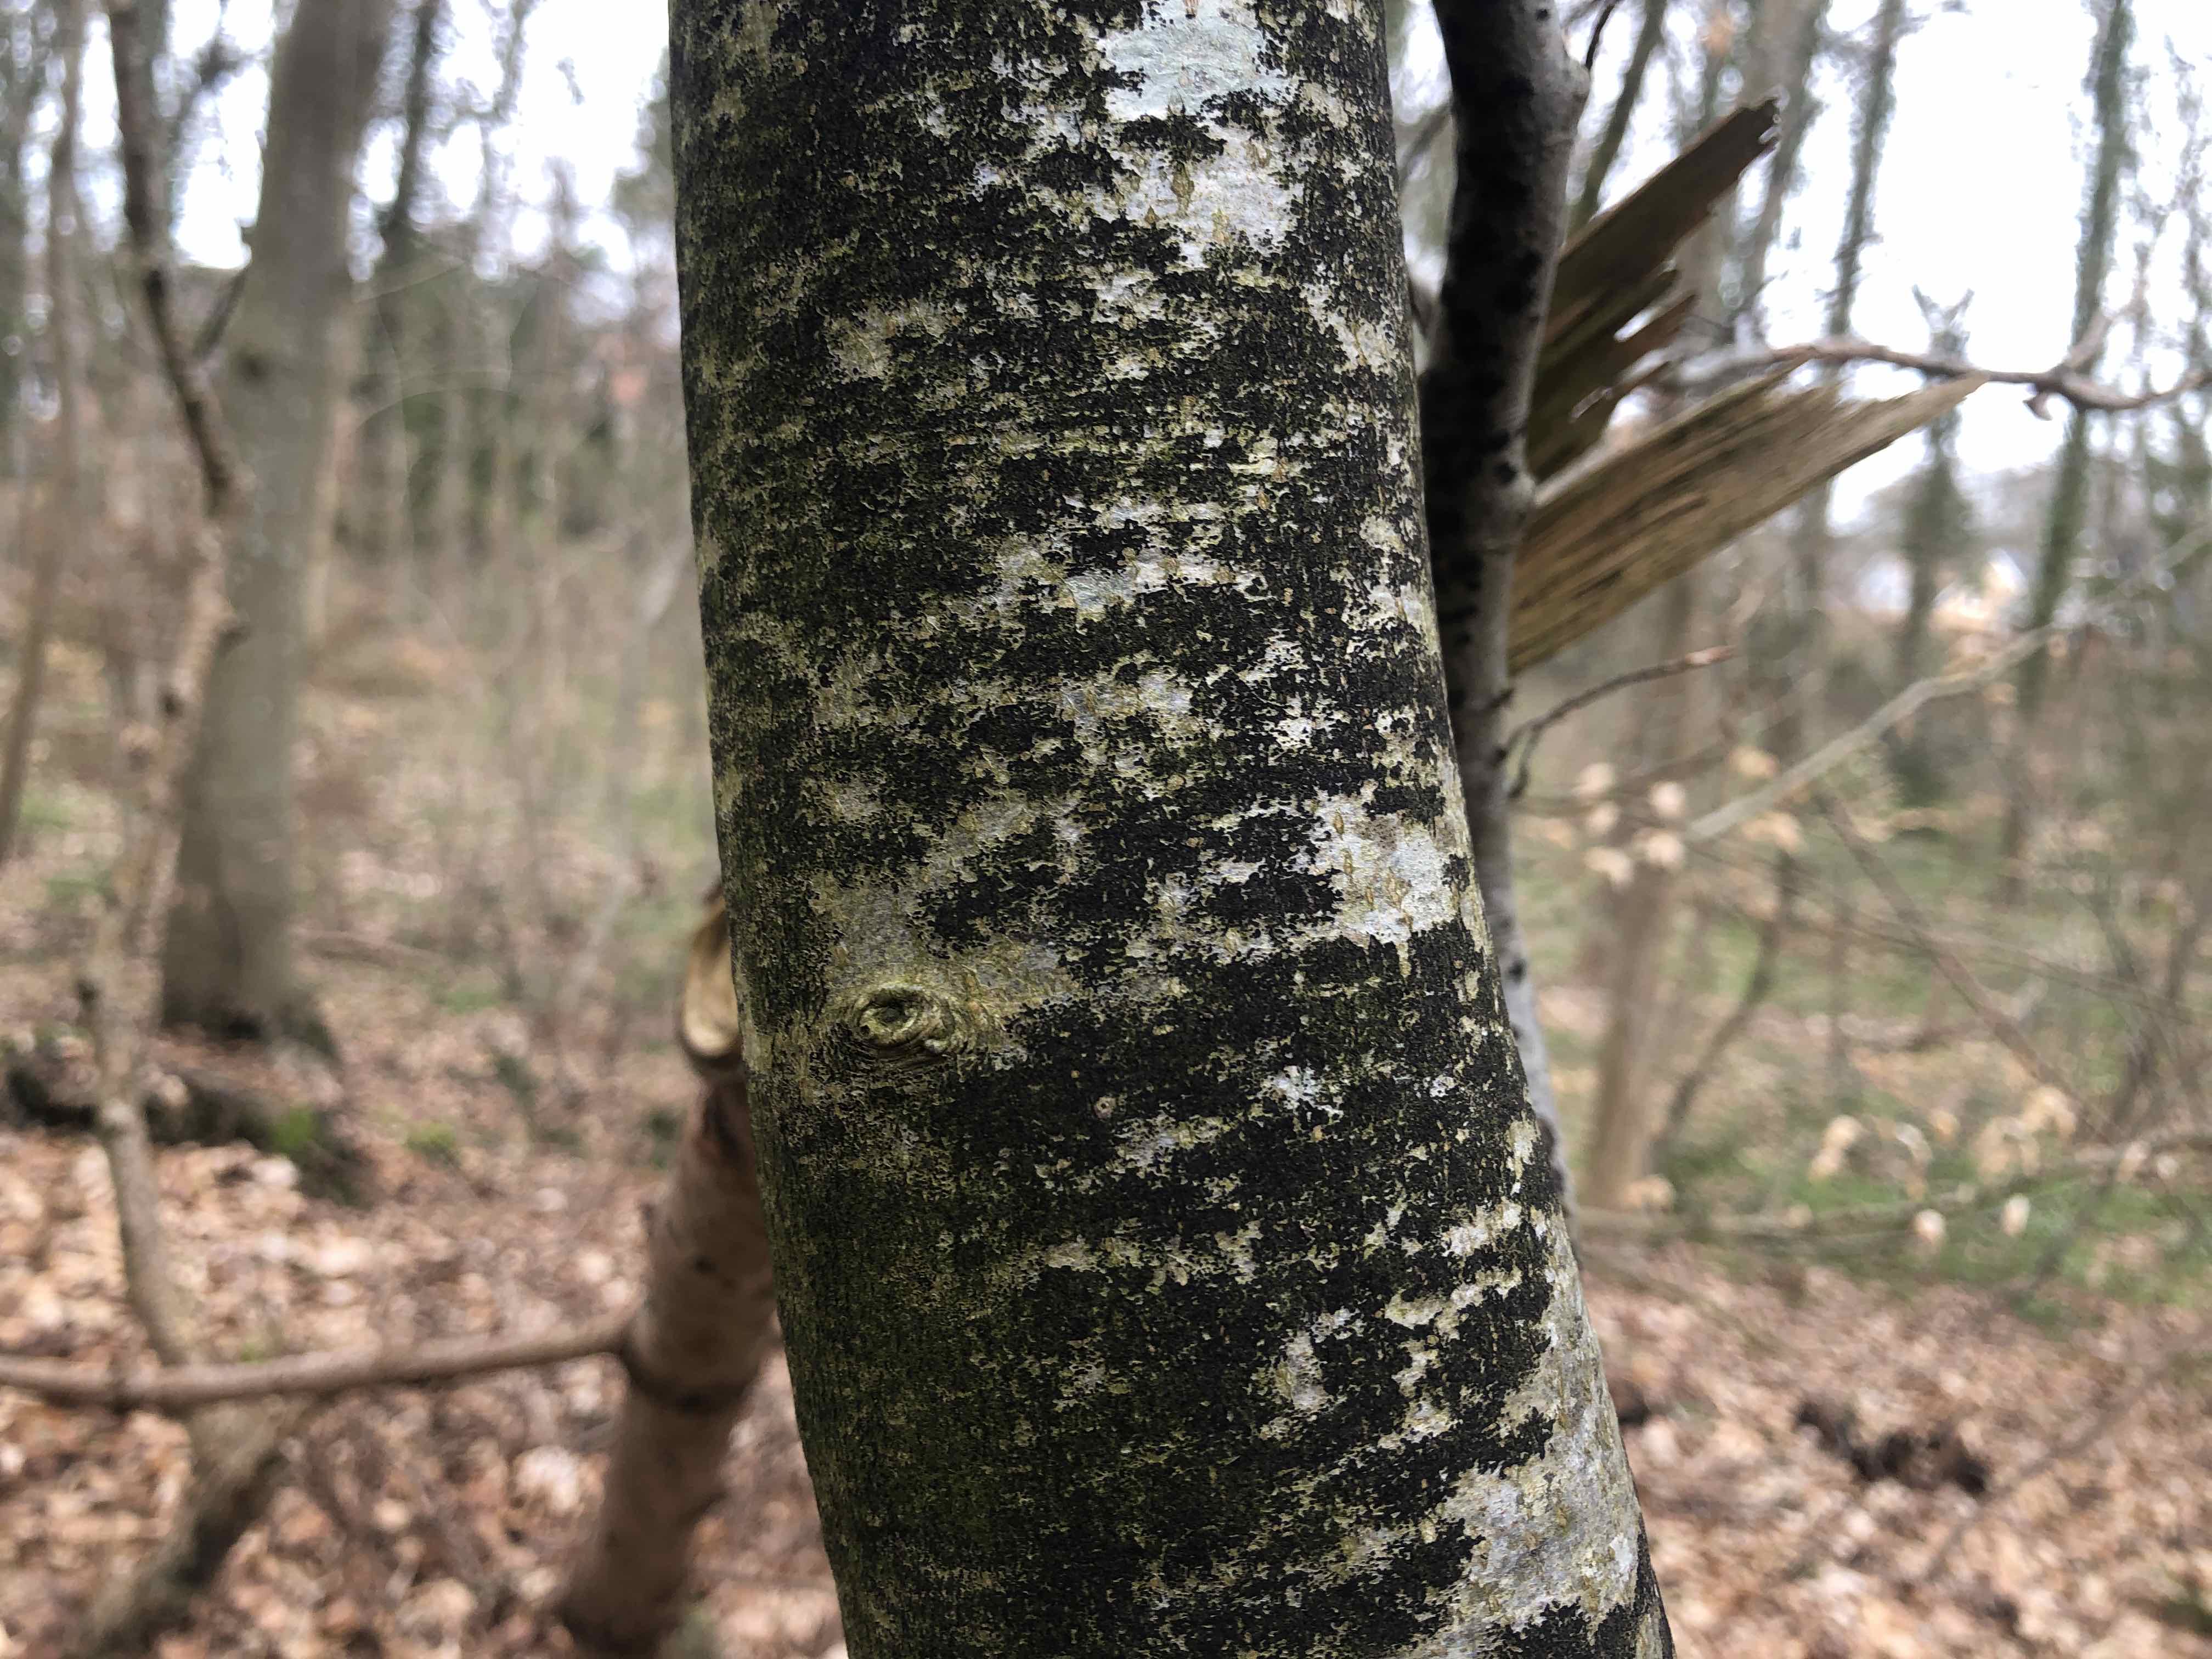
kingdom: Fungi
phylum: Ascomycota
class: Leotiomycetes
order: Rhytismatales
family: Ascodichaenaceae
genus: Ascodichaena
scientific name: Ascodichaena rugosa
